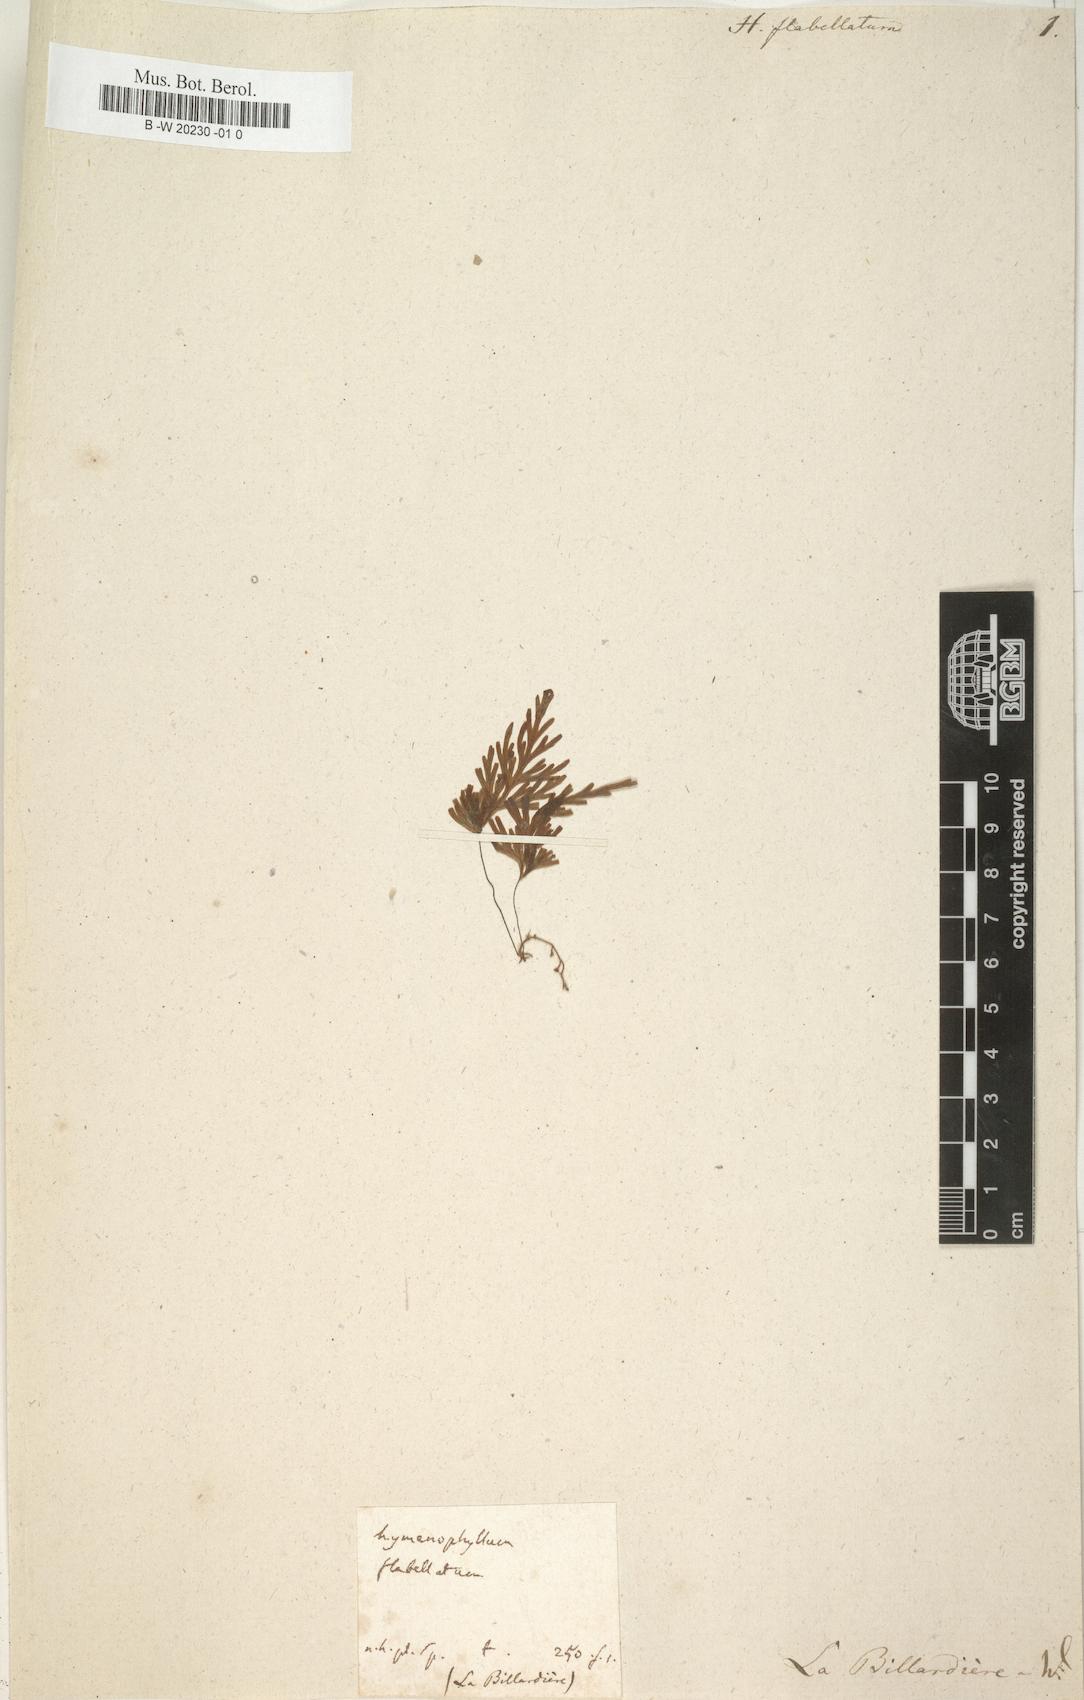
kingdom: Plantae
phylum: Tracheophyta
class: Polypodiopsida
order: Hymenophyllales
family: Hymenophyllaceae
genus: Hymenophyllum
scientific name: Hymenophyllum flabellatum
